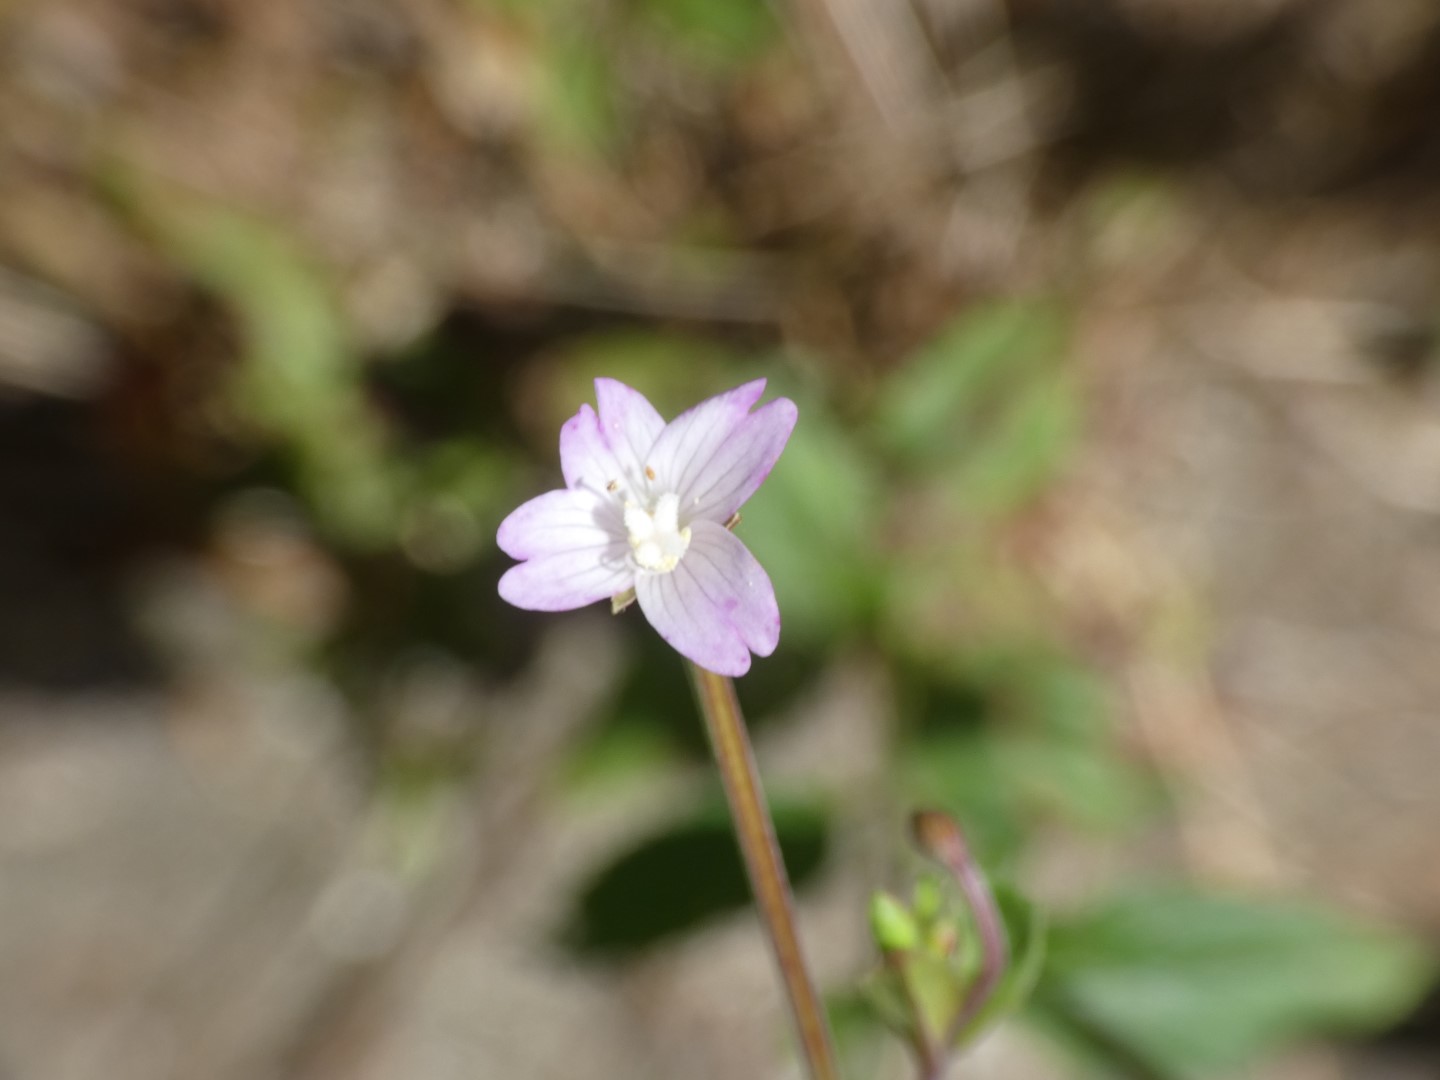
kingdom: Plantae
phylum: Tracheophyta
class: Magnoliopsida
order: Myrtales
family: Onagraceae
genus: Epilobium
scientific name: Epilobium montanum
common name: Glat dueurt
